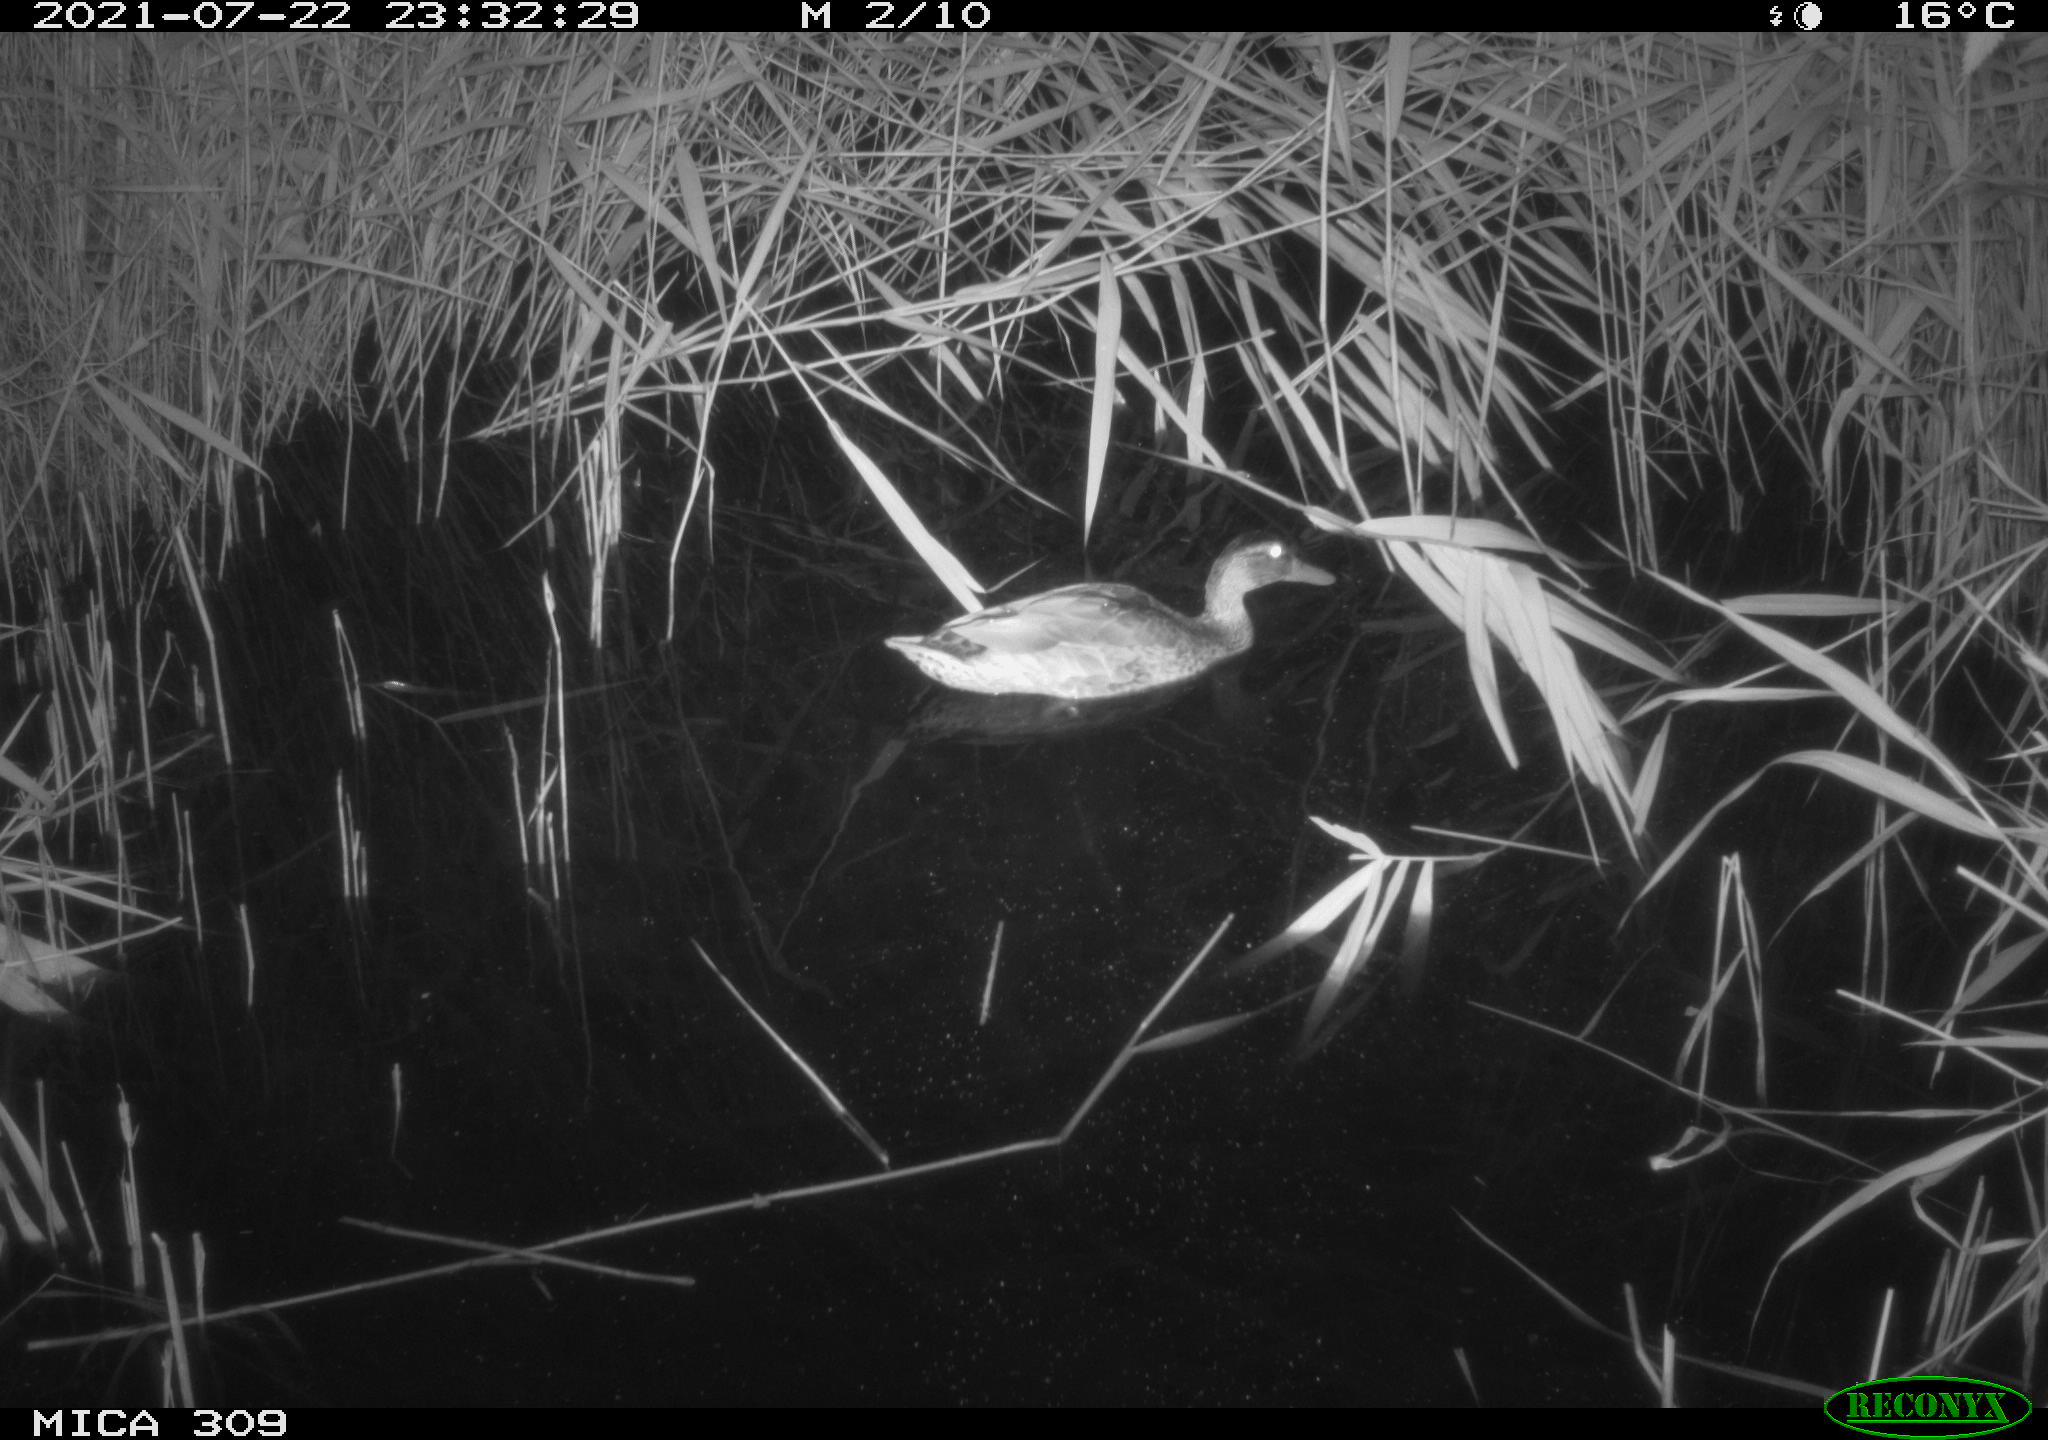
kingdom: Animalia
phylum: Chordata
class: Aves
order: Anseriformes
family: Anatidae
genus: Anas
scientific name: Anas platyrhynchos
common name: Mallard
